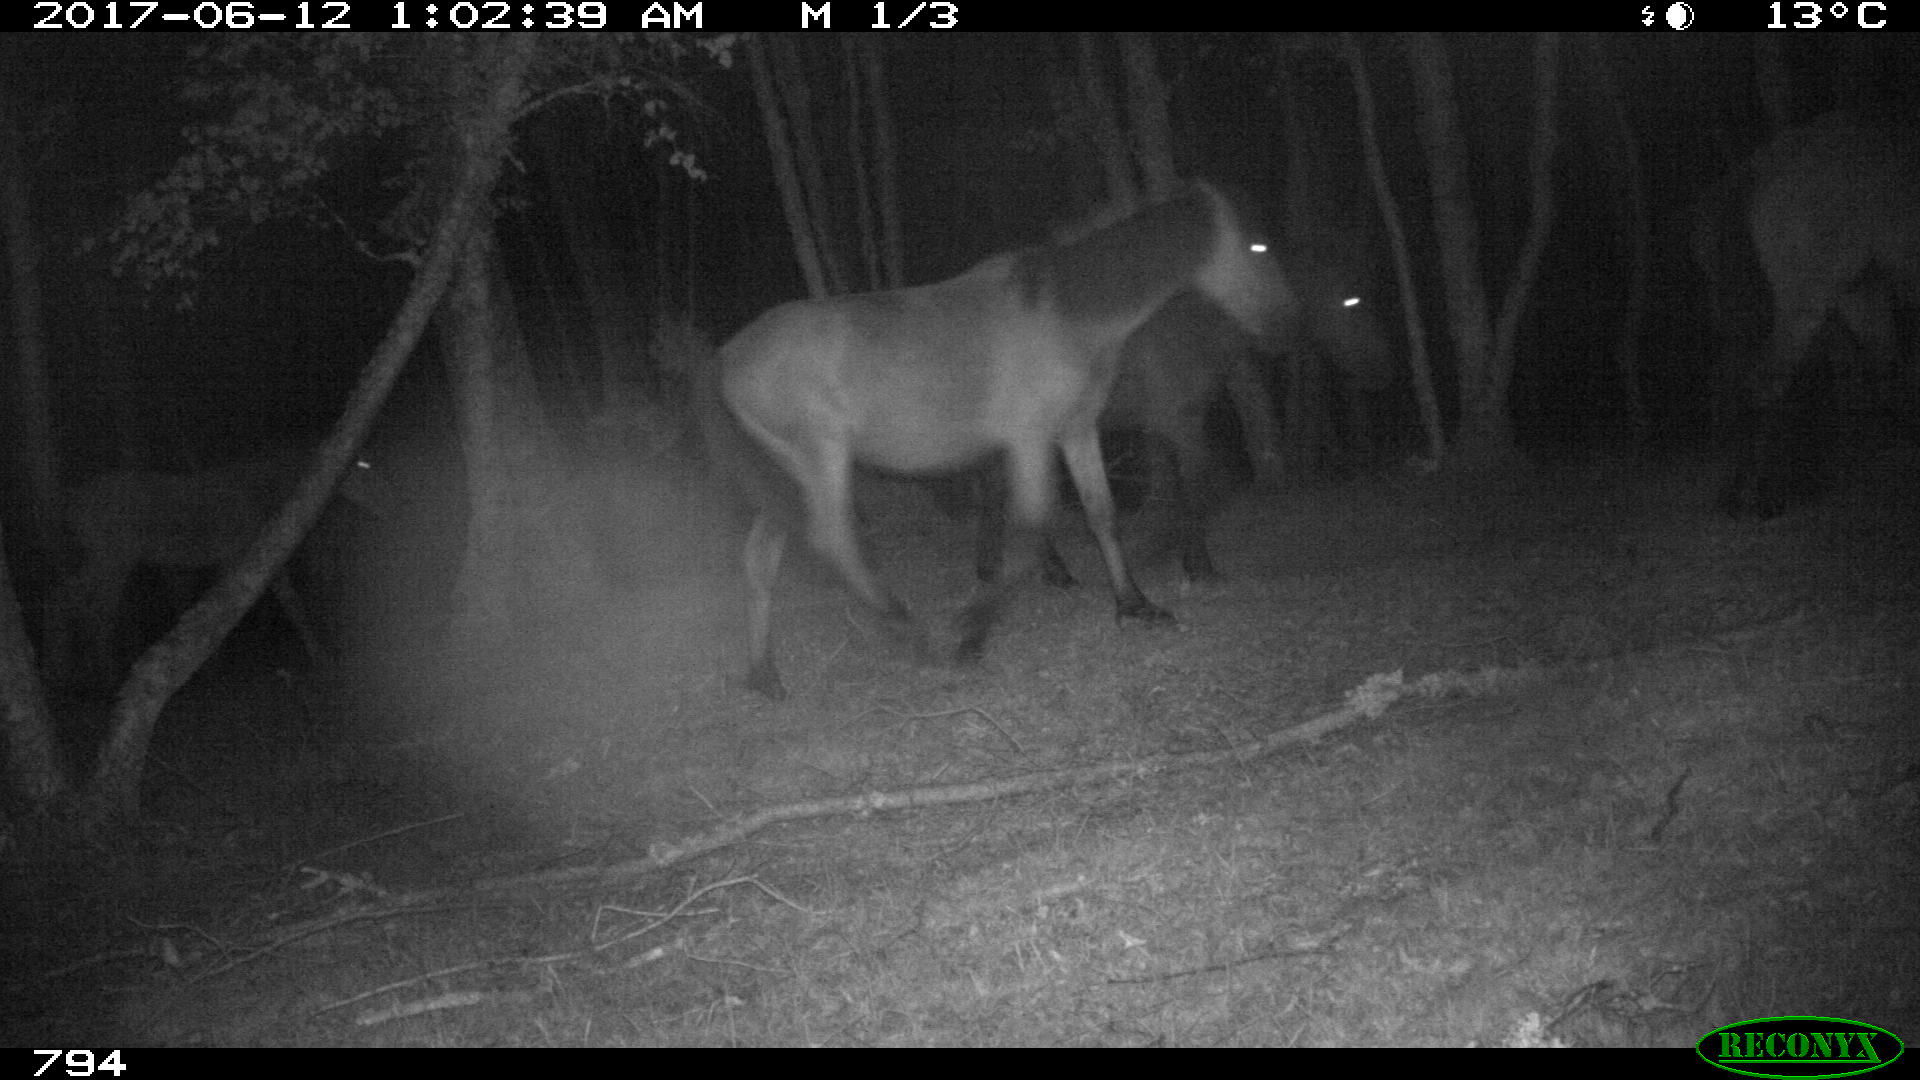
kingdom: Animalia
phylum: Chordata
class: Mammalia
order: Perissodactyla
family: Equidae
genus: Equus
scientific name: Equus caballus
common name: Horse
